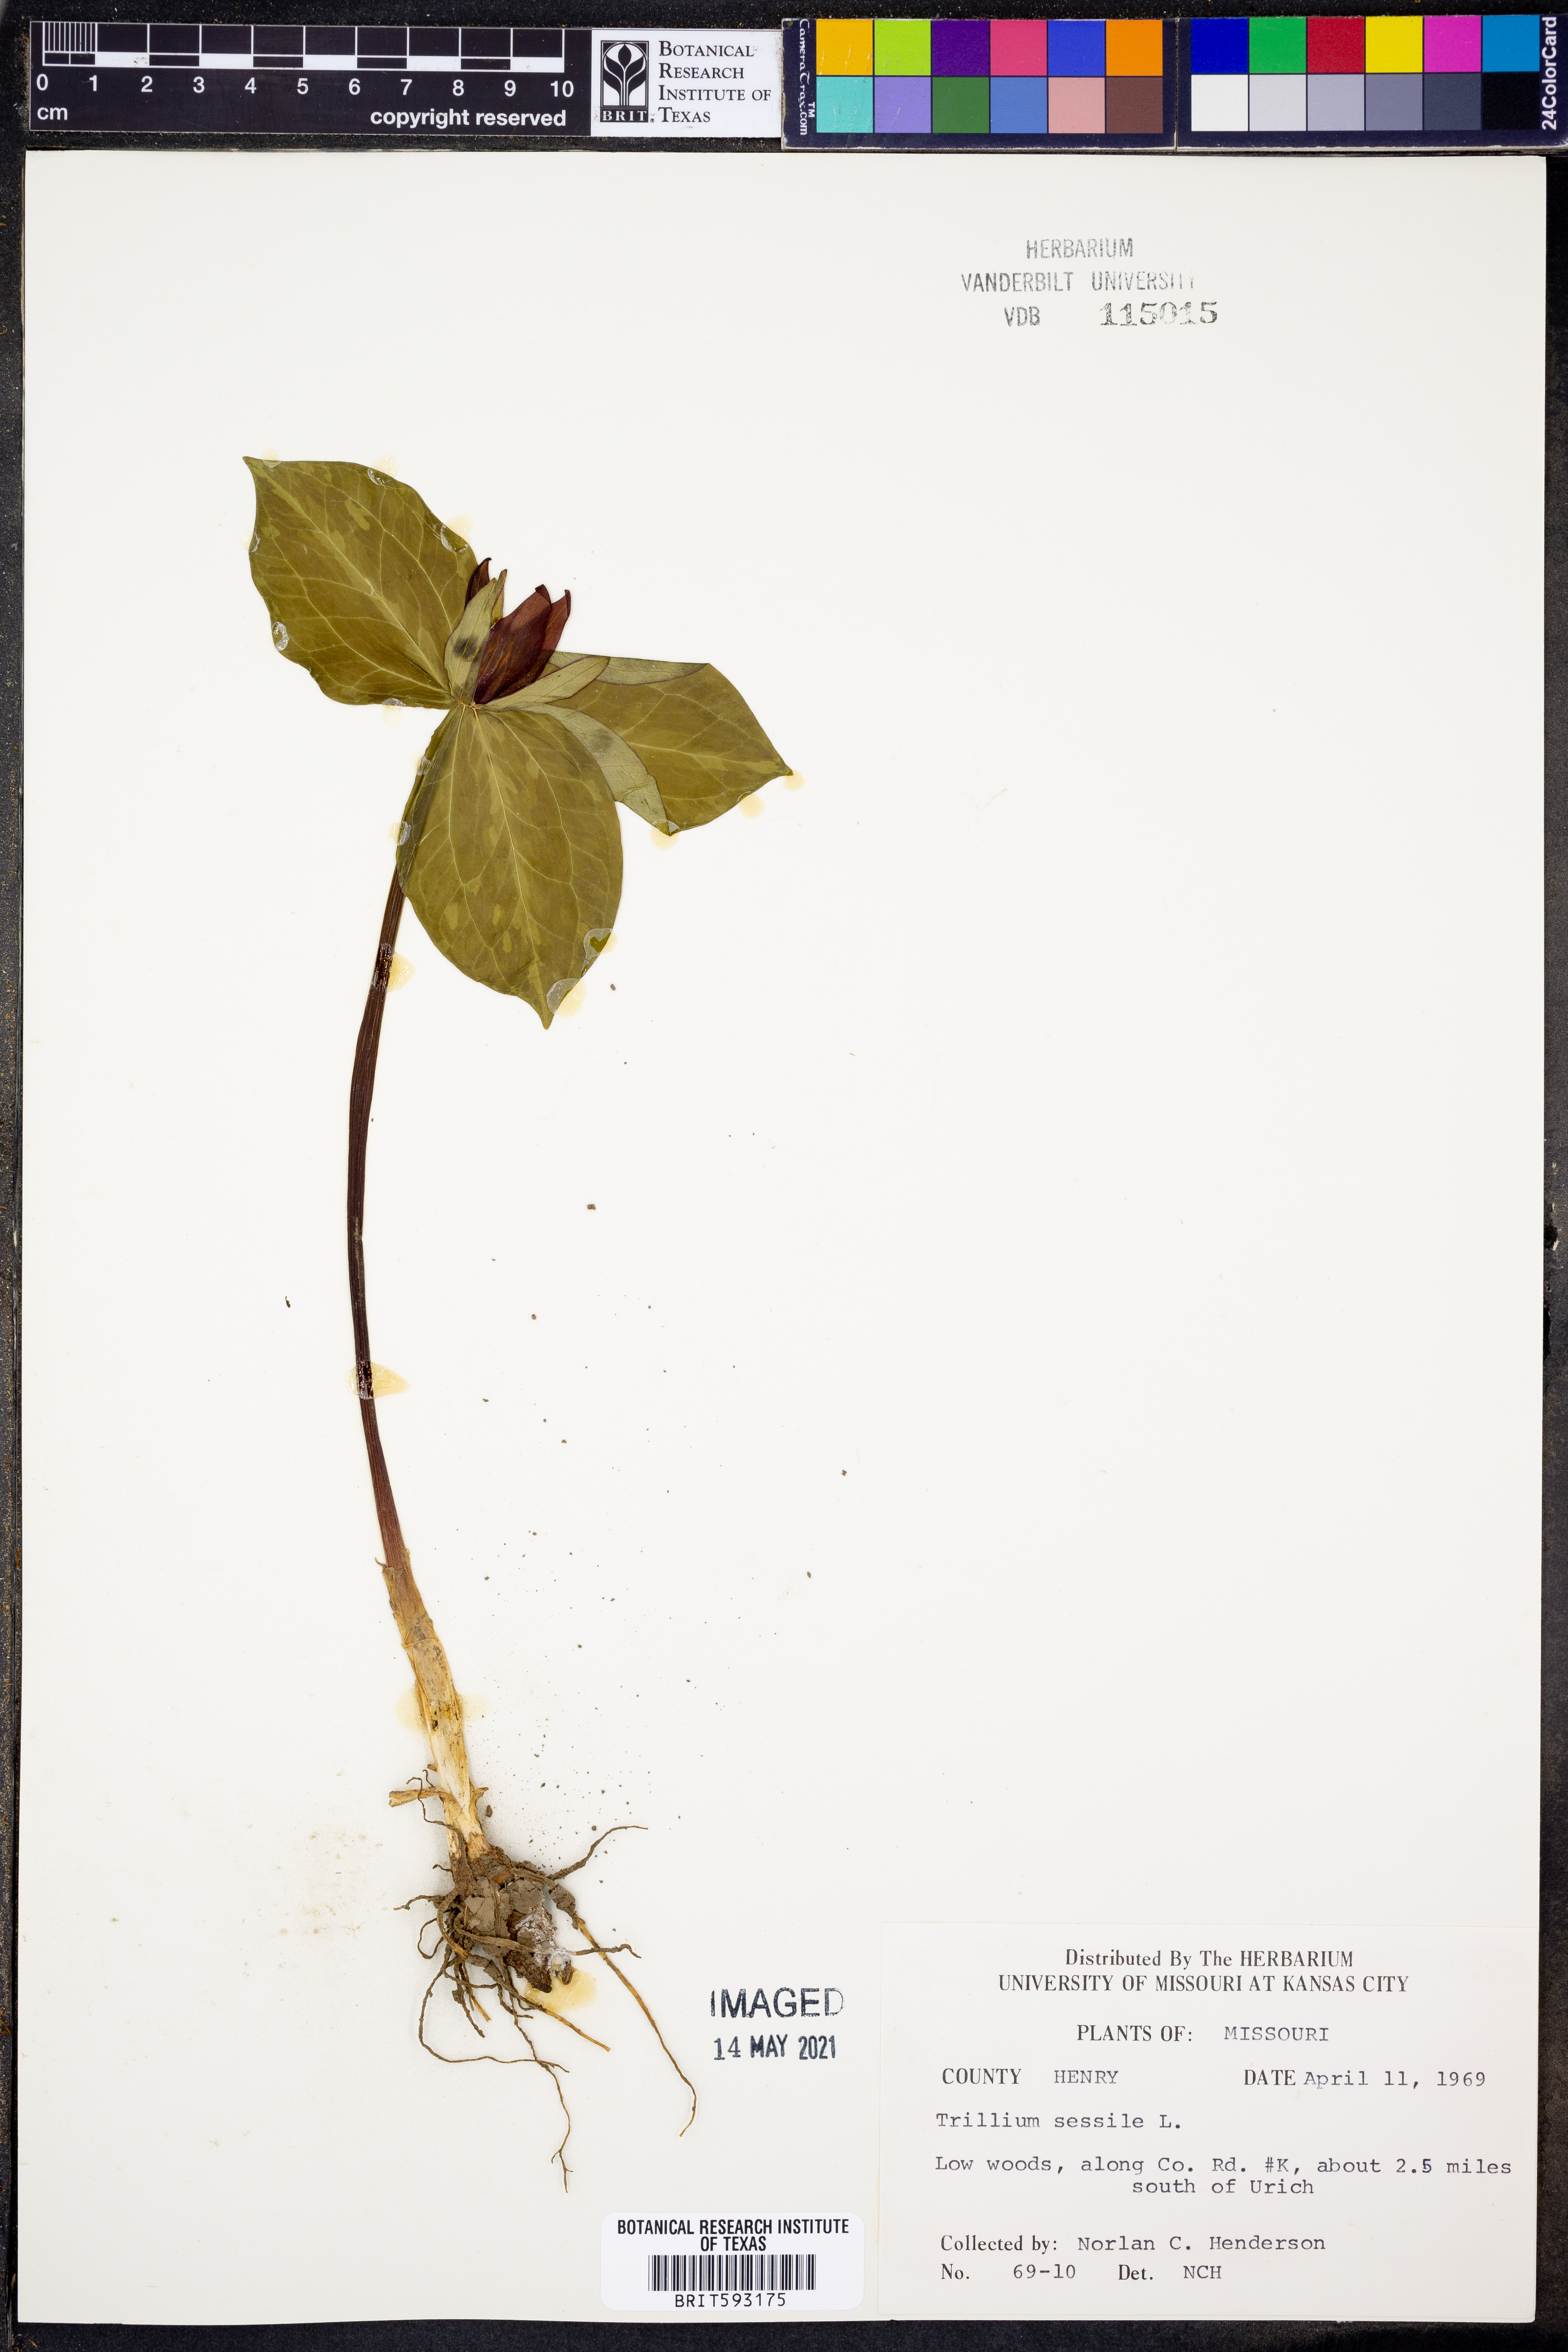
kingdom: Plantae
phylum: Tracheophyta
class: Liliopsida
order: Liliales
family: Melanthiaceae
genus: Trillium
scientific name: Trillium sessile
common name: Sessile trillium
